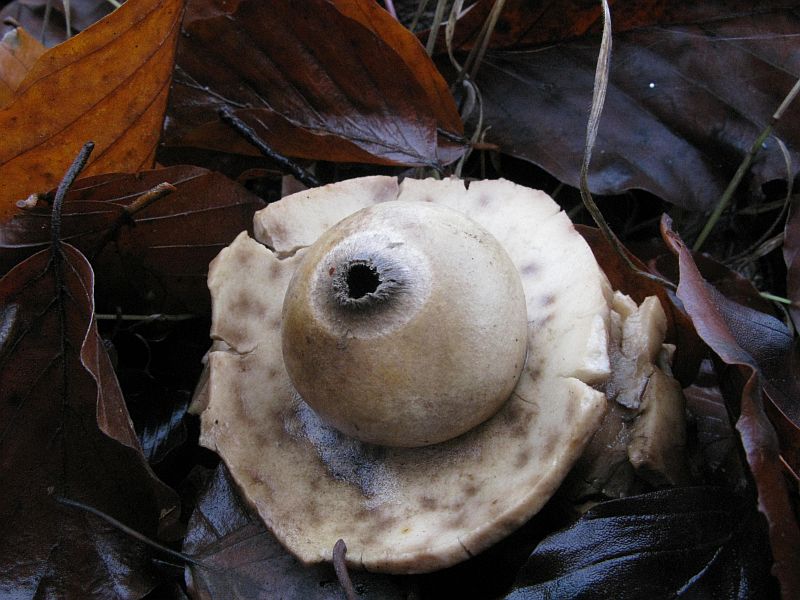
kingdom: Fungi
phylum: Basidiomycota
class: Agaricomycetes
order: Geastrales
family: Geastraceae
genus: Geastrum
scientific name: Geastrum michelianum
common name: kødet stjernebold
